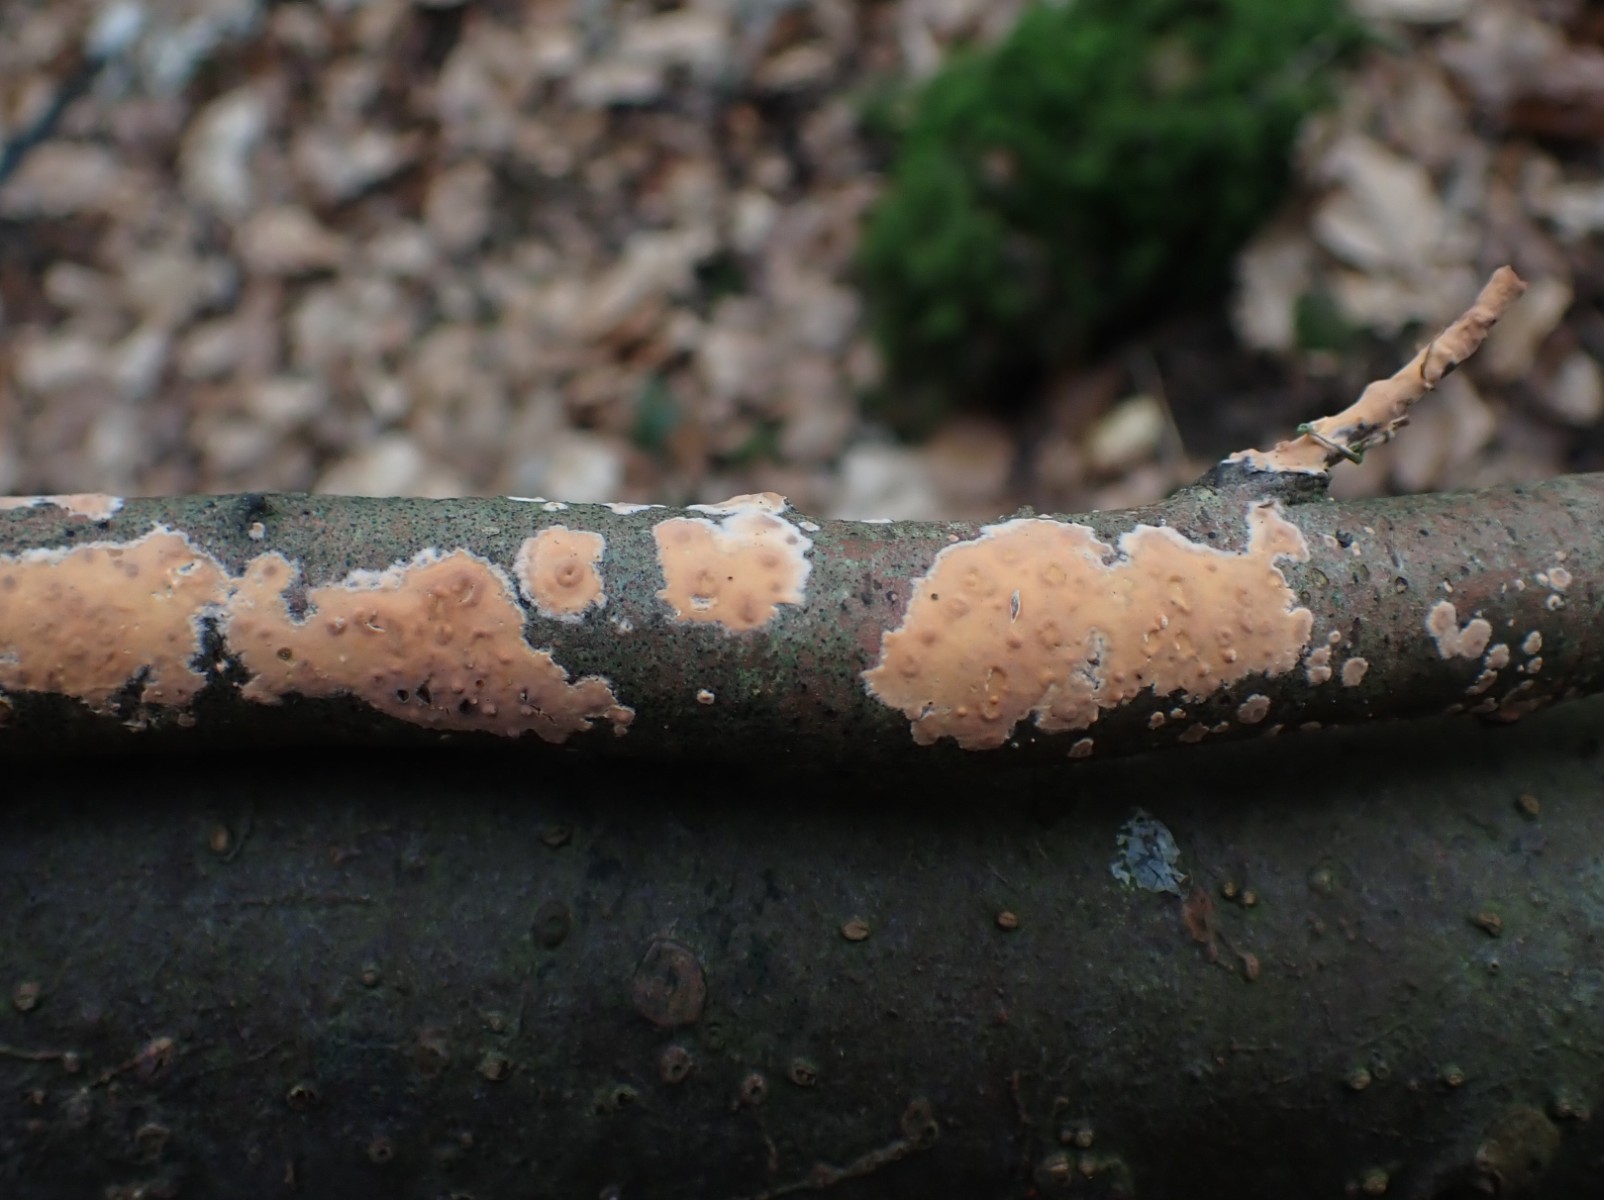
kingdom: Fungi
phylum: Basidiomycota
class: Agaricomycetes
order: Russulales
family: Peniophoraceae
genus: Peniophora
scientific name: Peniophora incarnata
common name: laksefarvet voksskind
